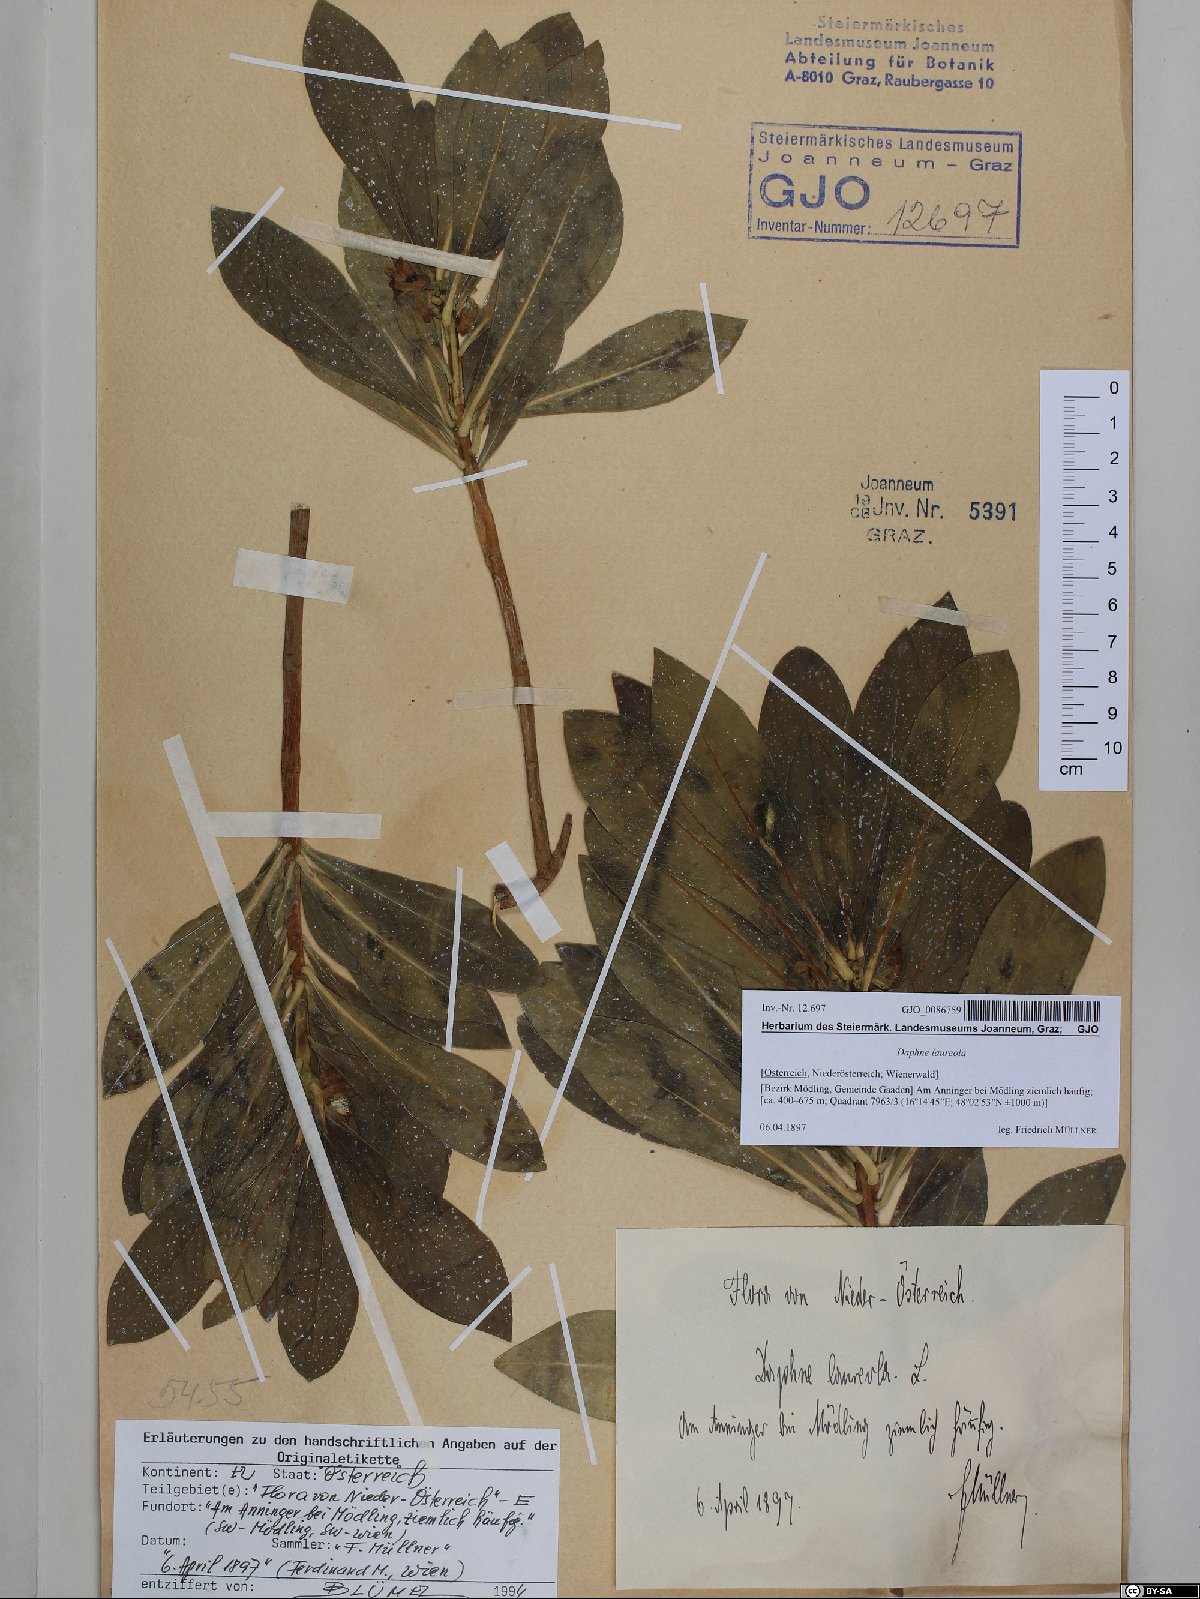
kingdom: Plantae
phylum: Tracheophyta
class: Magnoliopsida
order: Malvales
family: Thymelaeaceae
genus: Daphne
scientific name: Daphne laureola
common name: Spurge-laurel
